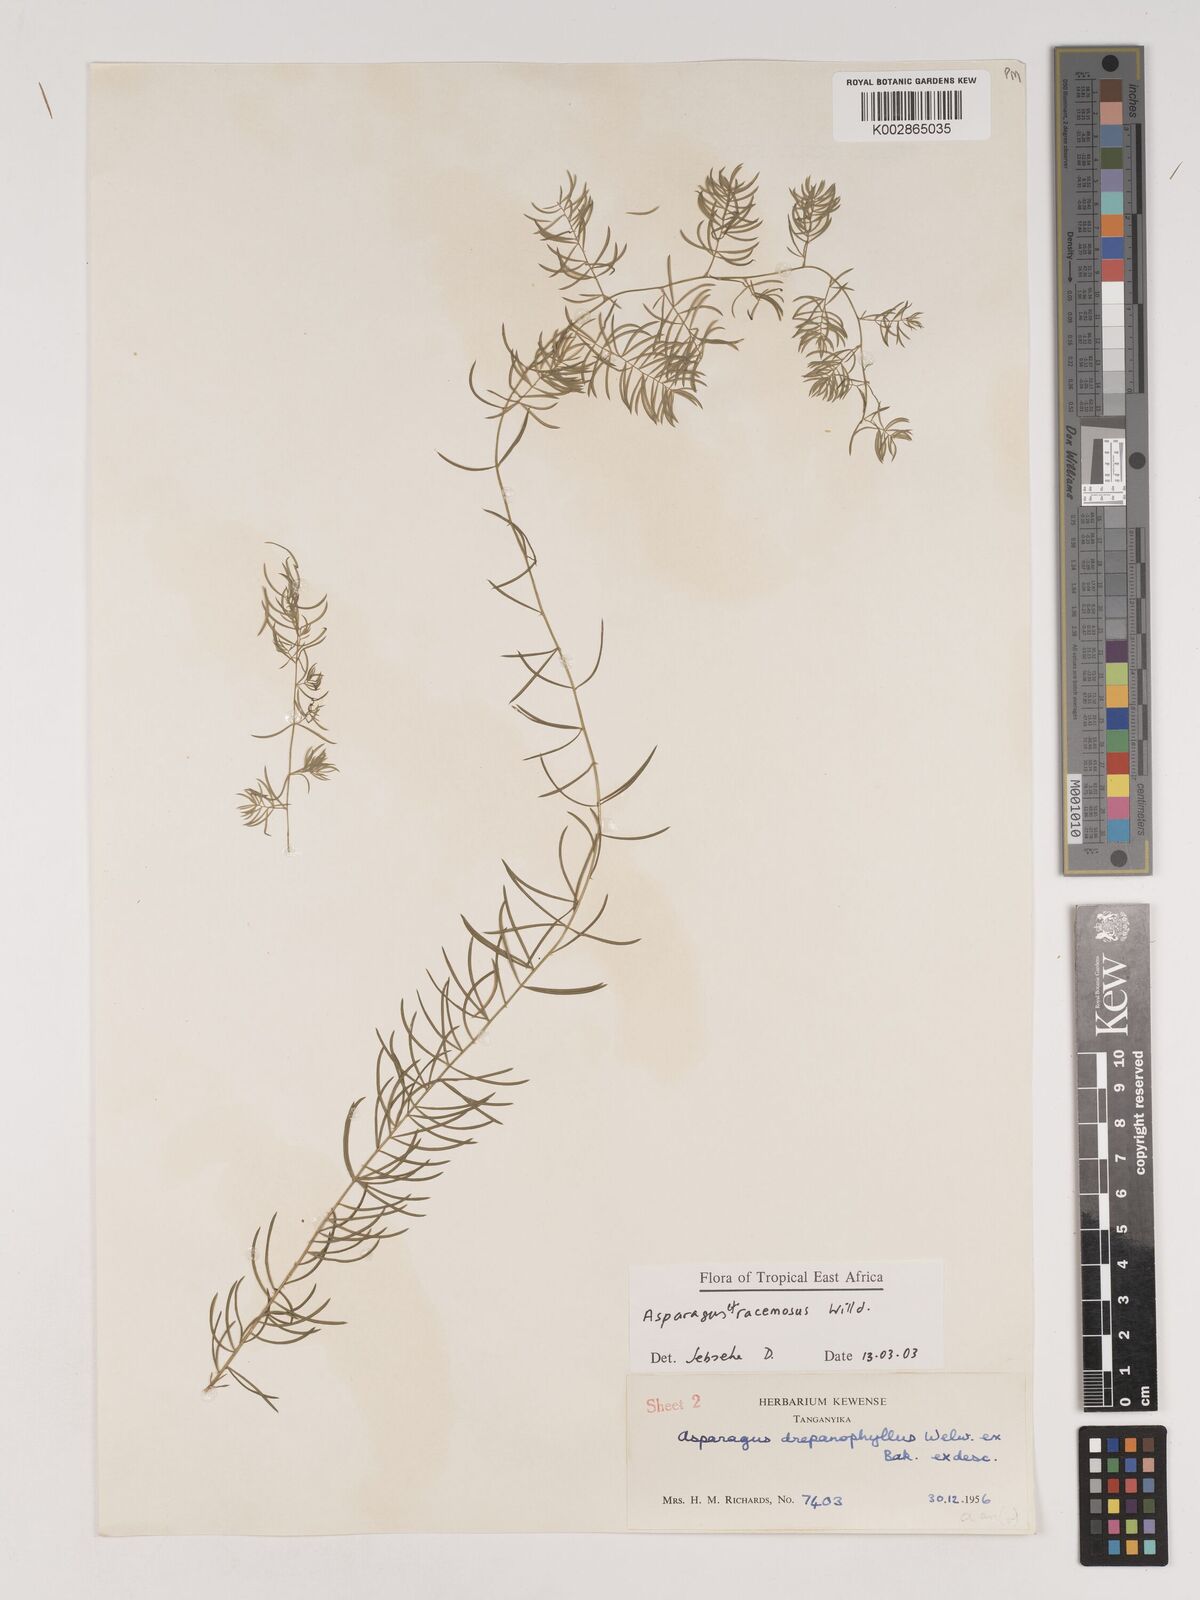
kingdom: Plantae
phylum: Tracheophyta
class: Liliopsida
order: Asparagales
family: Asparagaceae
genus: Asparagus
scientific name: Asparagus drepanophyllus
